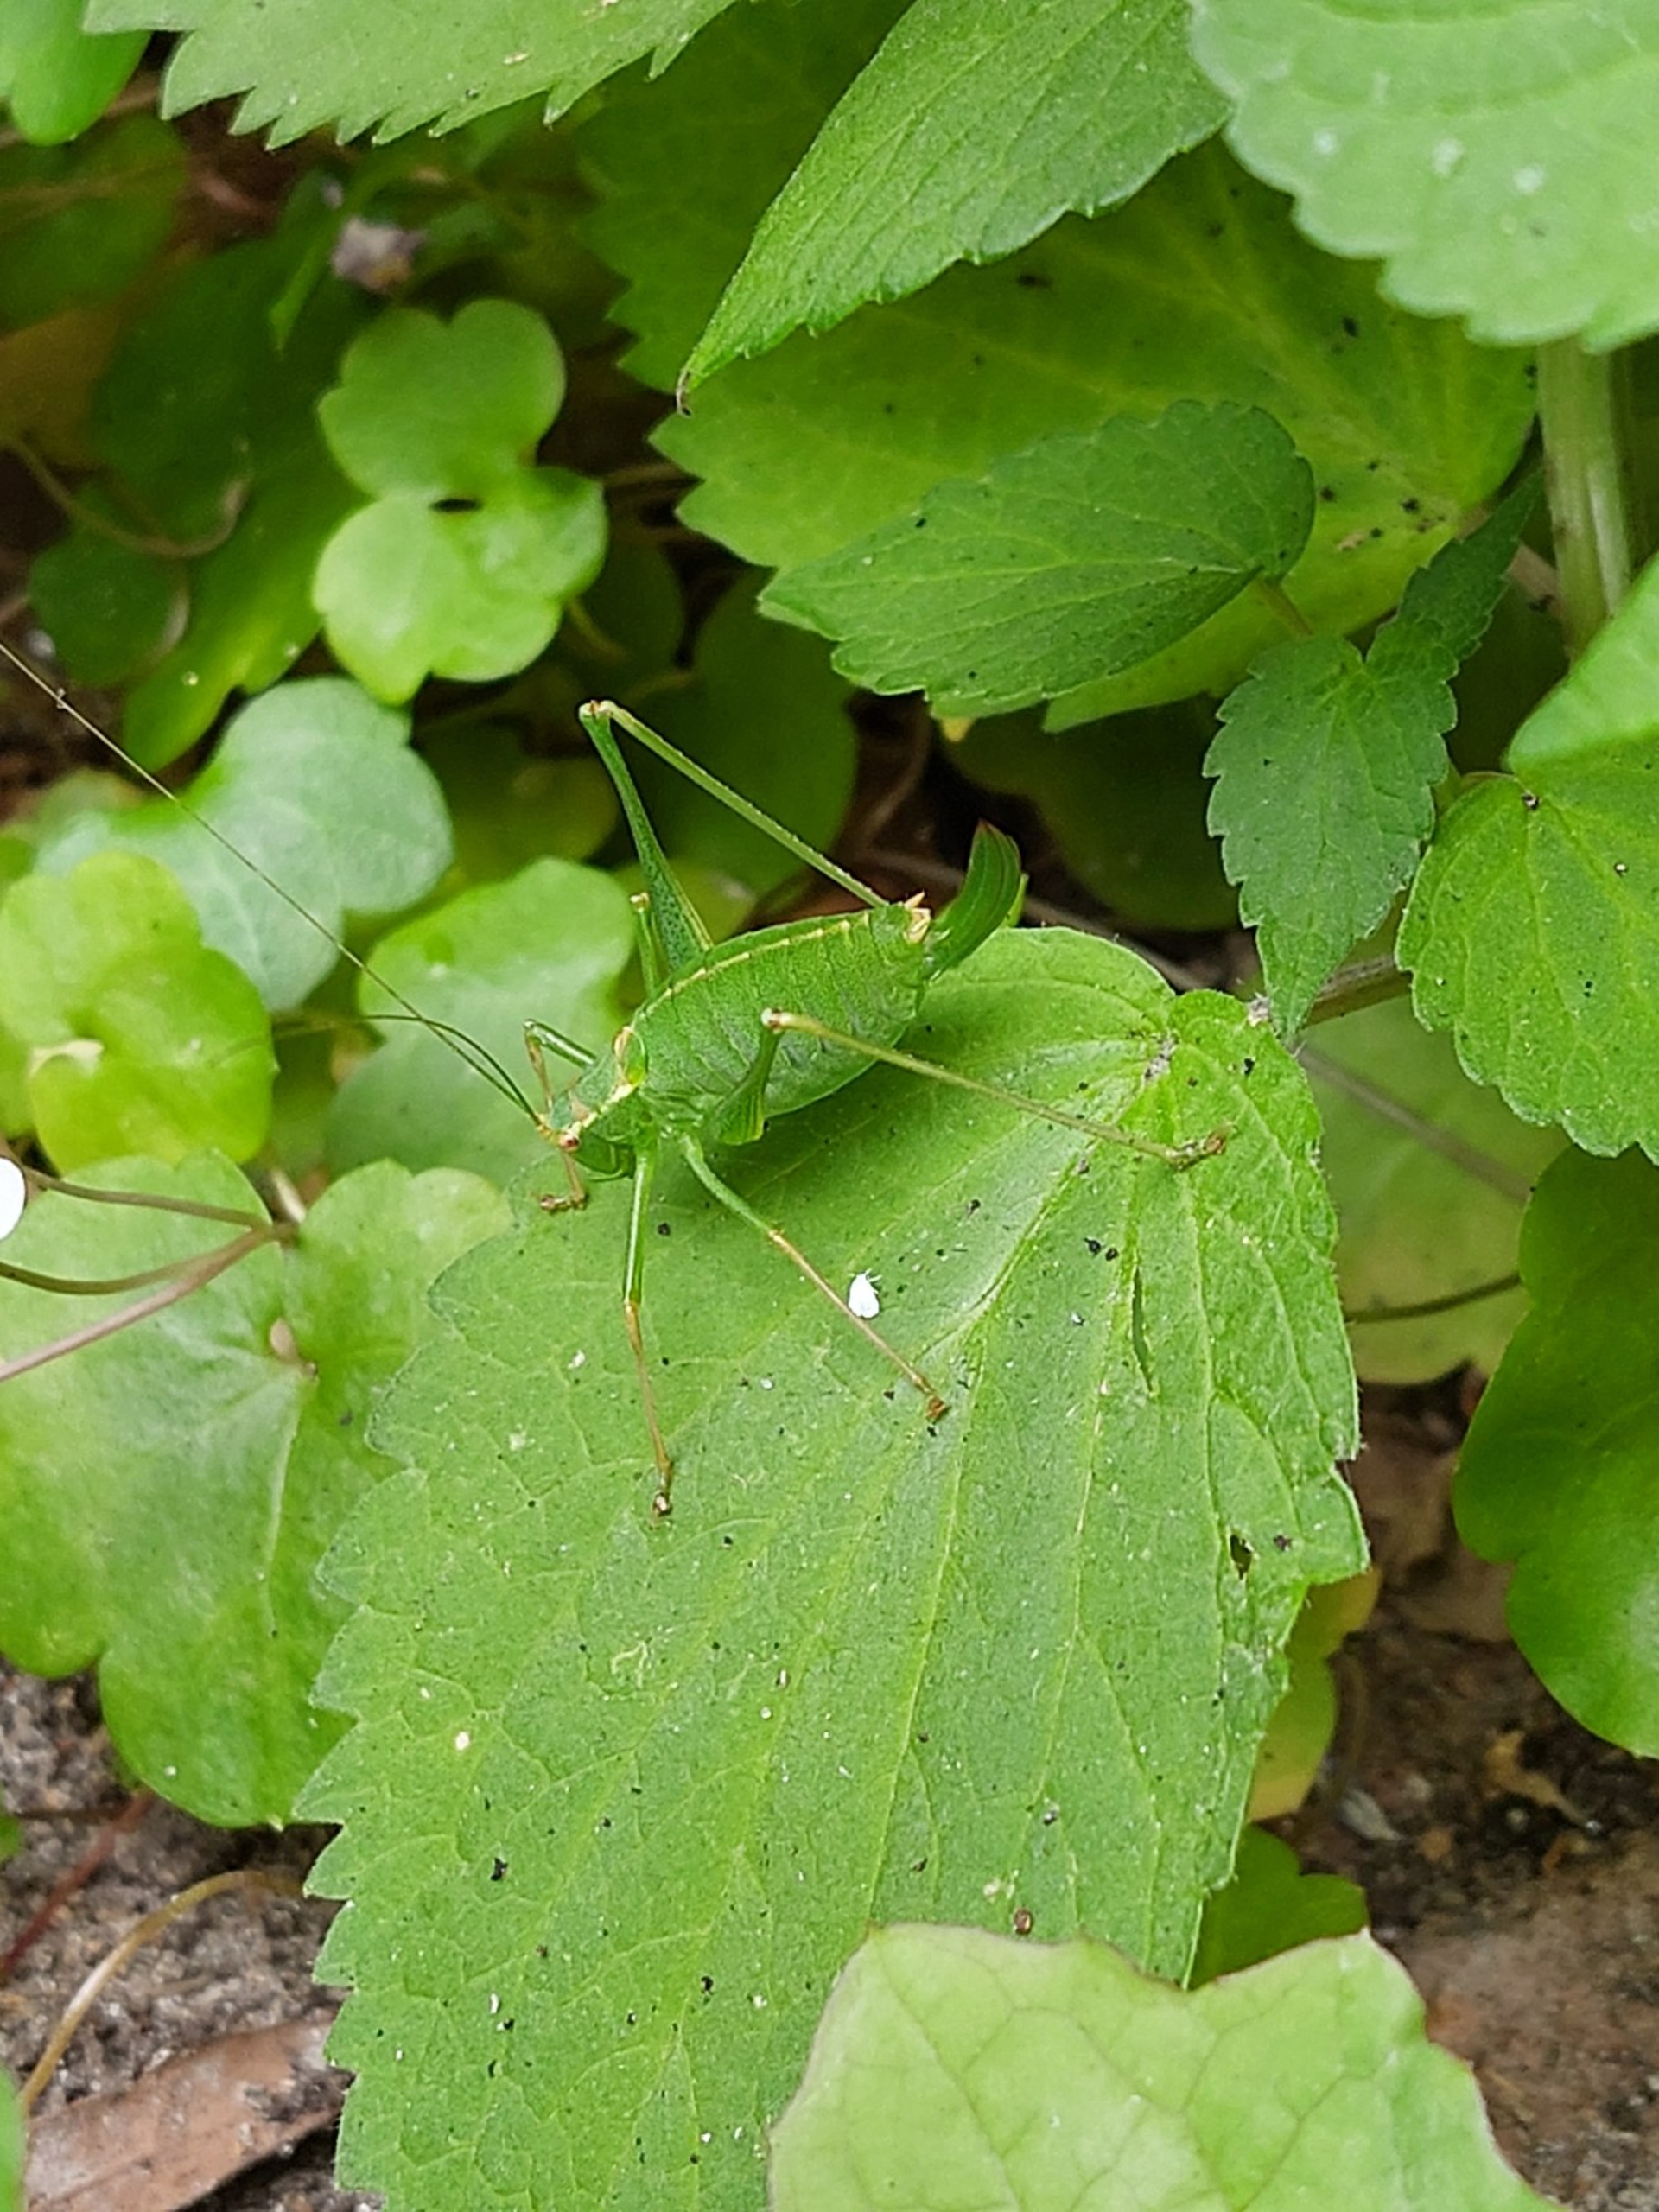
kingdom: Animalia
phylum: Arthropoda
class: Insecta
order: Orthoptera
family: Tettigoniidae
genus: Leptophyes
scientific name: Leptophyes punctatissima
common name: Krumknivgræshoppe
